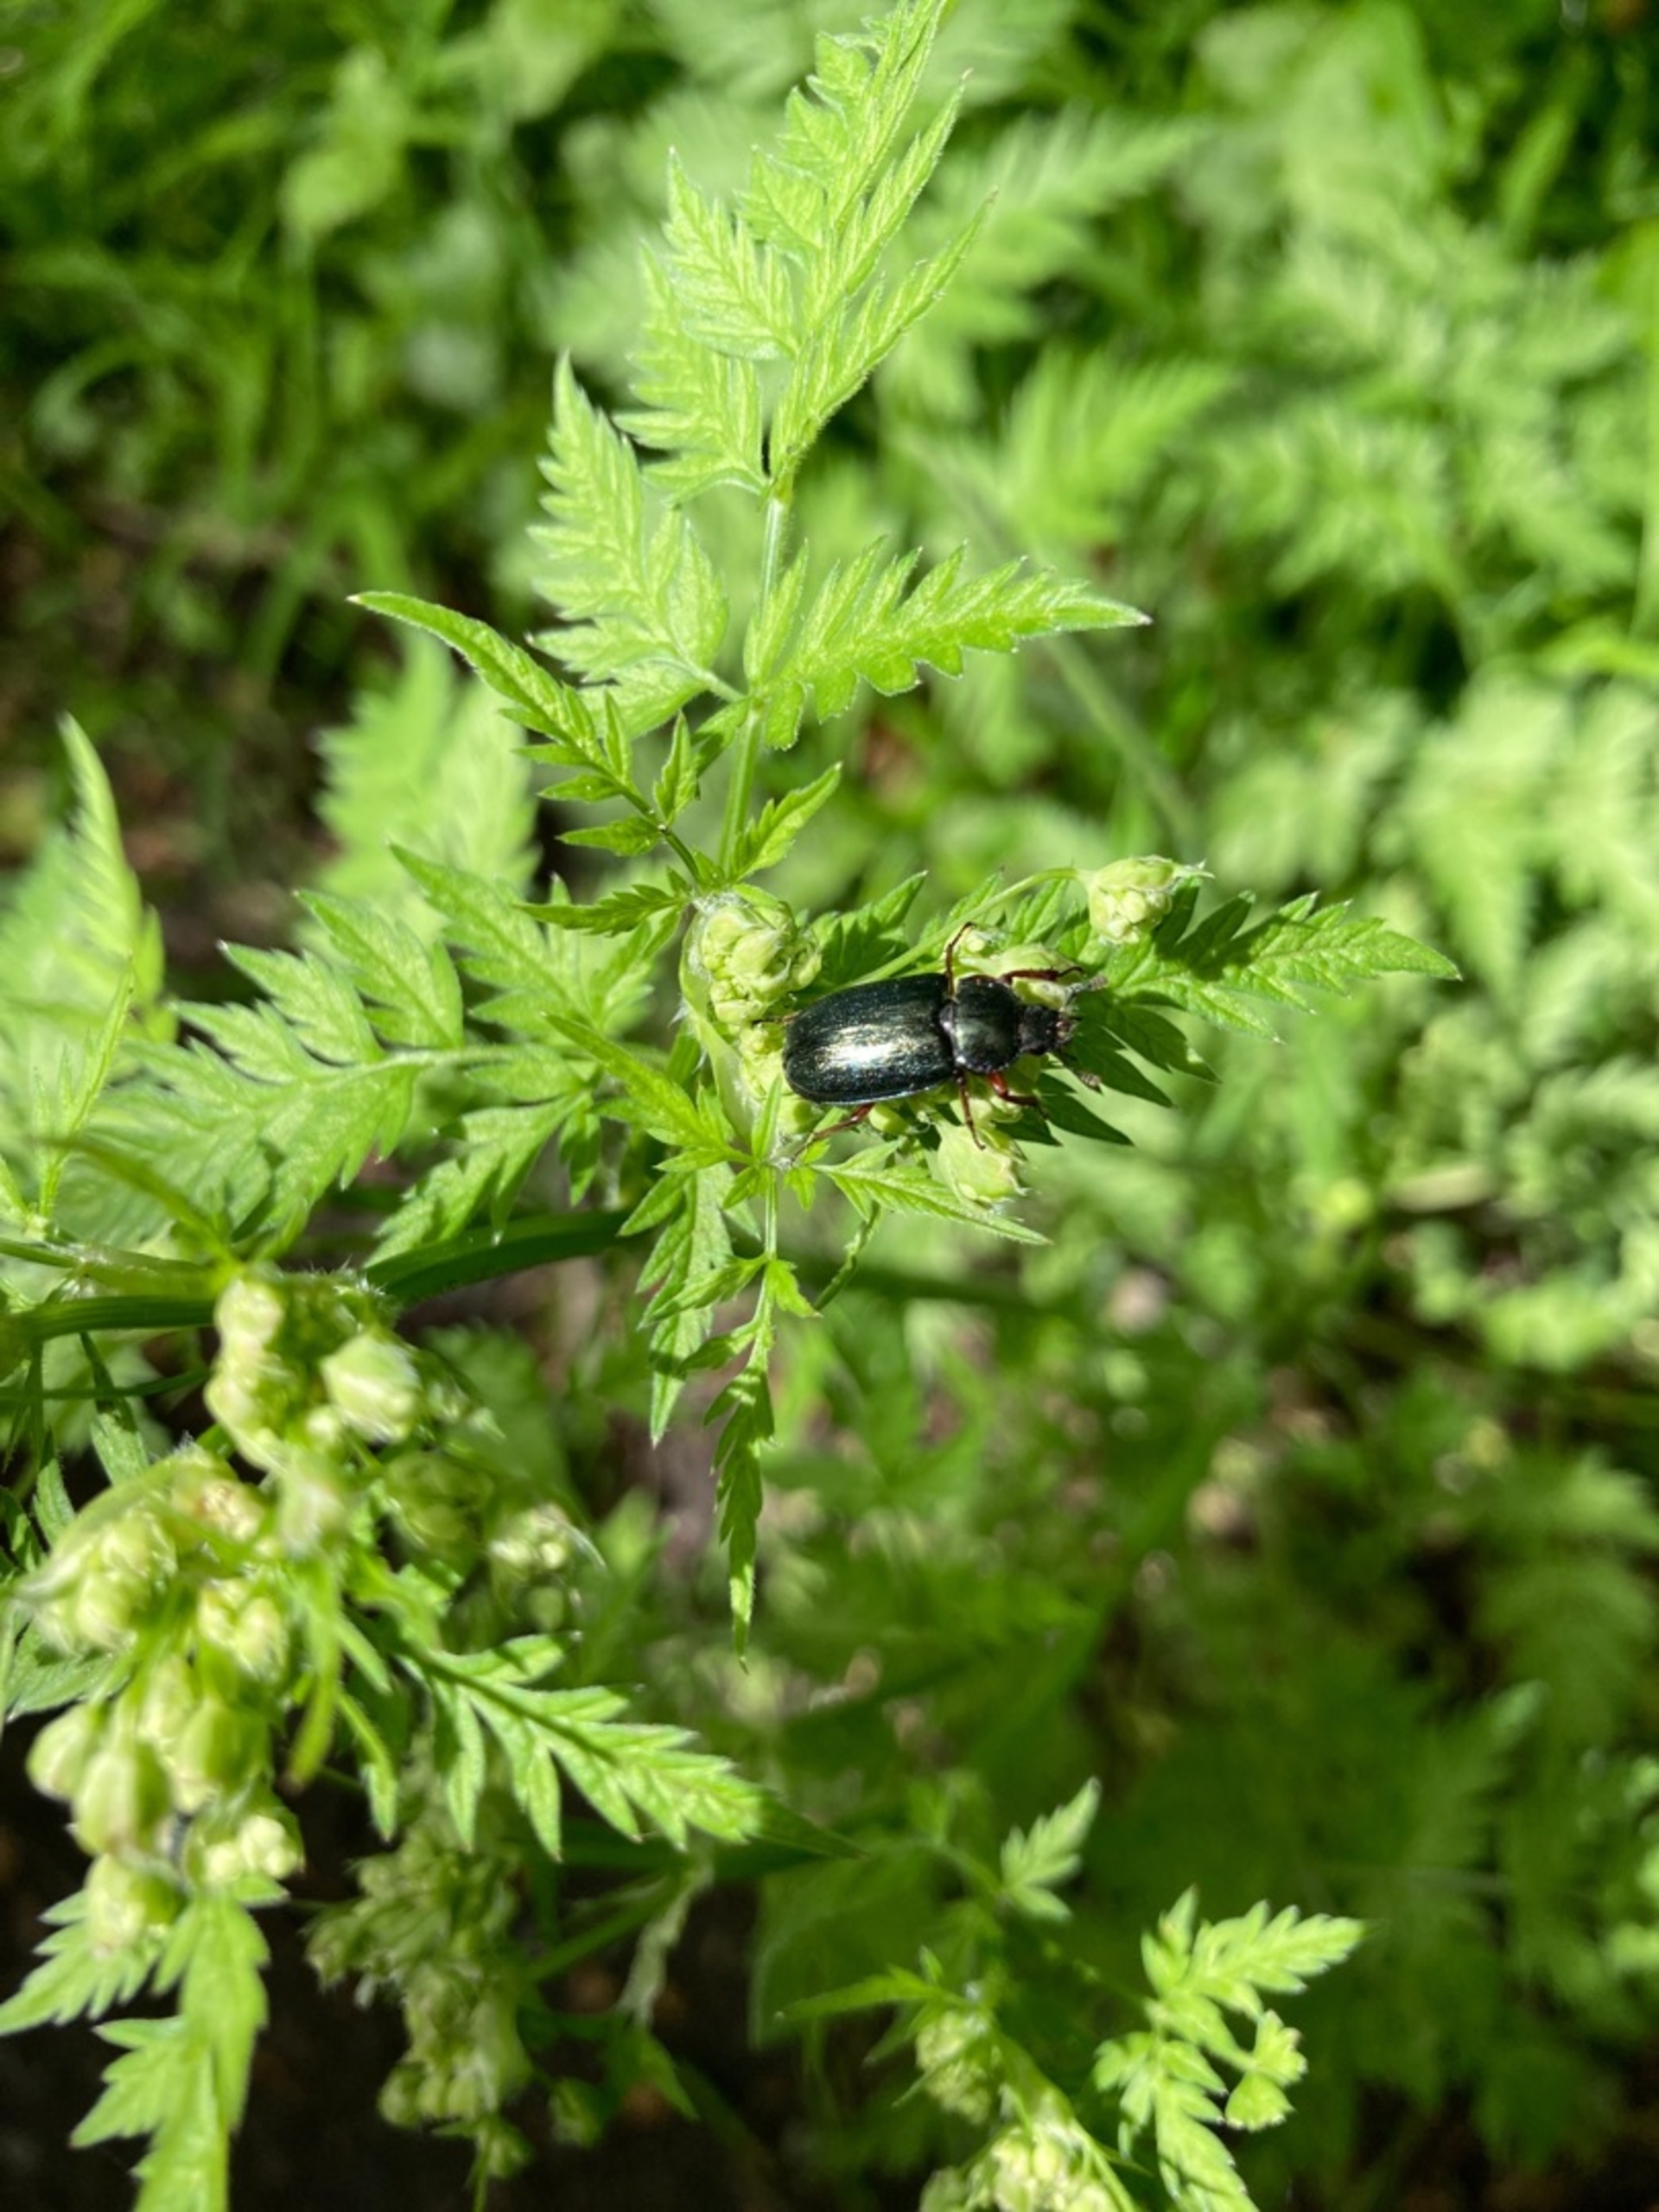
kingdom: Animalia
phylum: Arthropoda
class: Insecta
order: Coleoptera
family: Lucanidae
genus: Platycerus
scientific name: Platycerus caraboides
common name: Blåhjort
